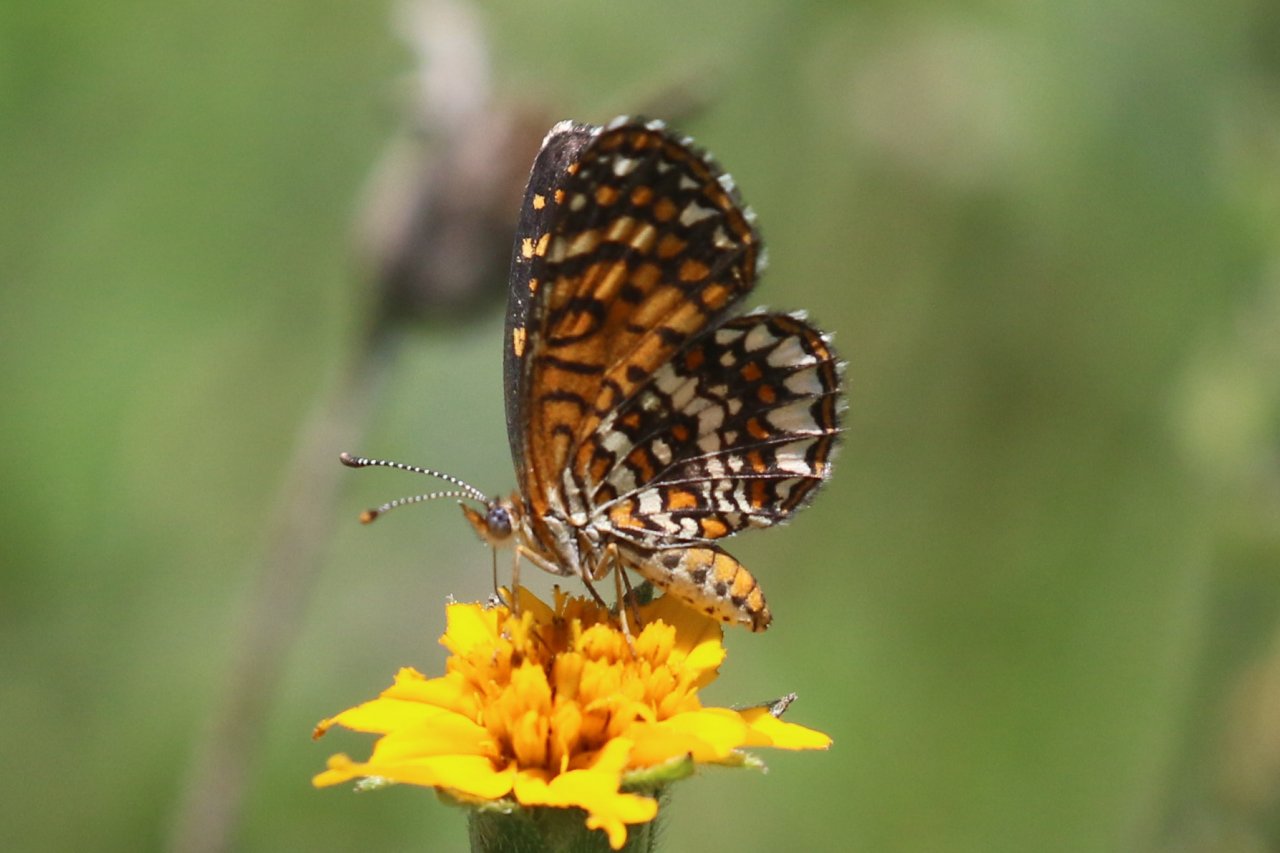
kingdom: Animalia
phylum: Arthropoda
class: Insecta
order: Lepidoptera
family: Nymphalidae
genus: Texola
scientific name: Texola elada
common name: Elada Checkerspot
